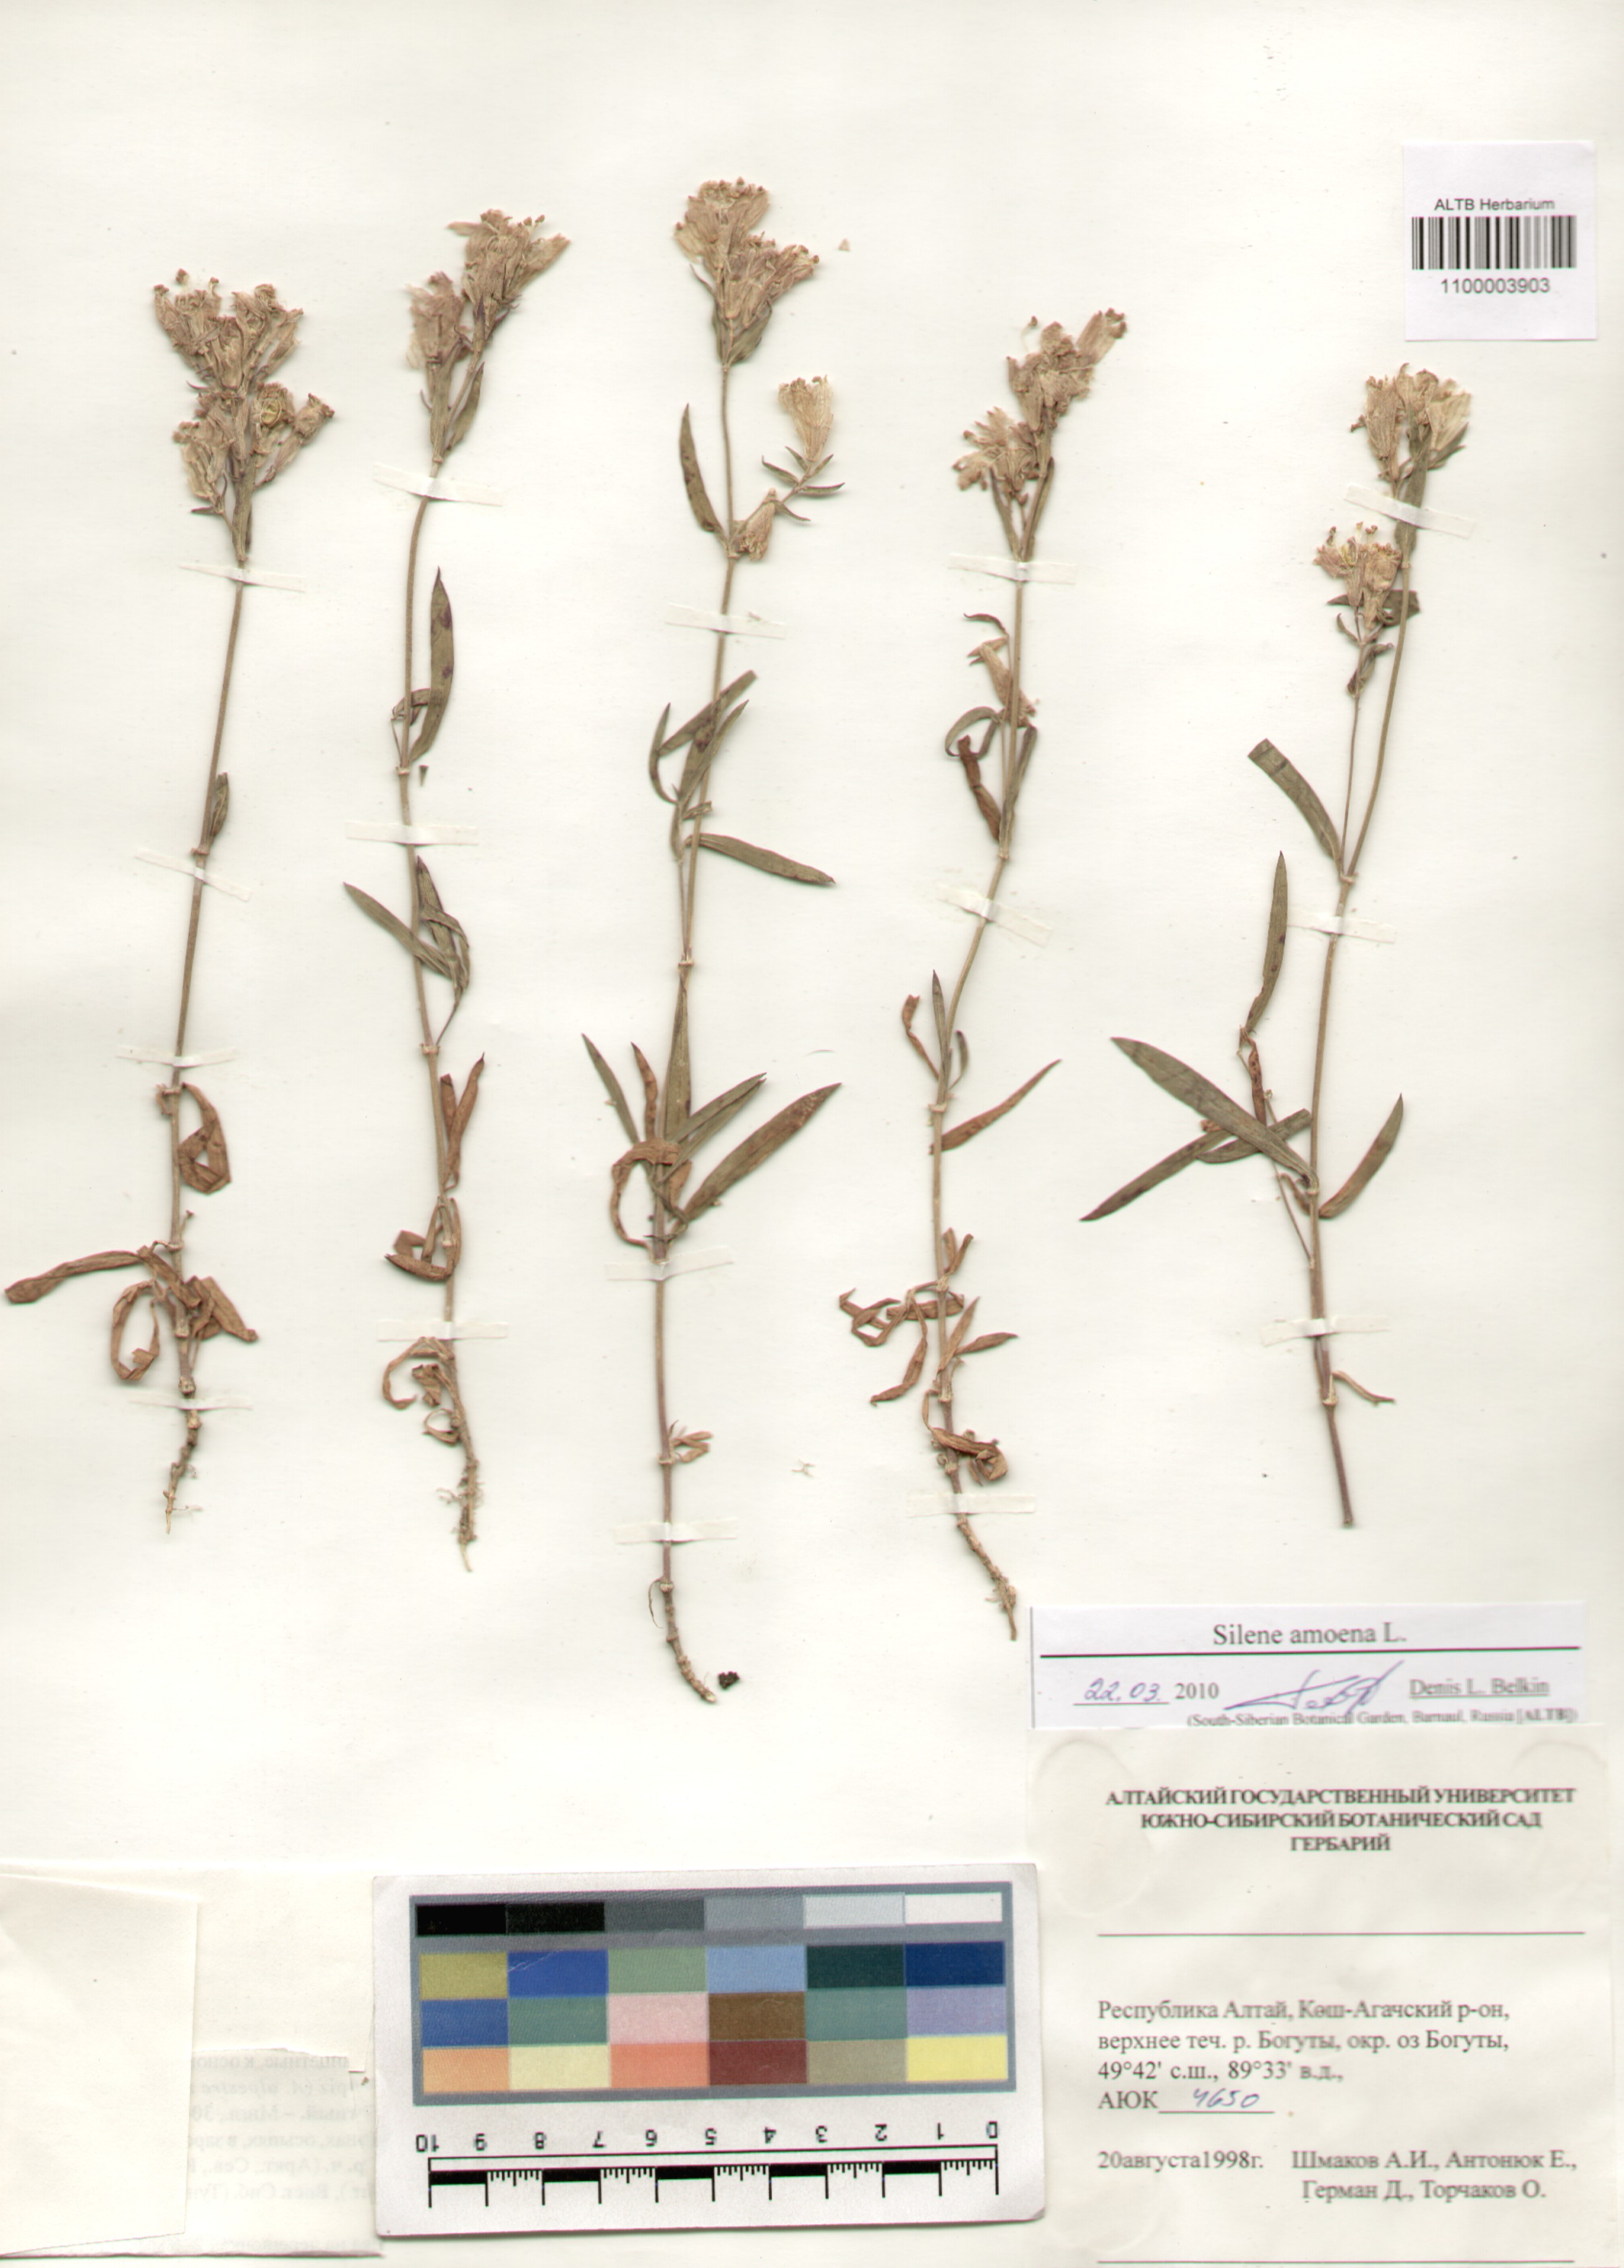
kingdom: Plantae
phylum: Tracheophyta
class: Magnoliopsida
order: Caryophyllales
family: Caryophyllaceae
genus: Silene
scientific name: Silene amoena
